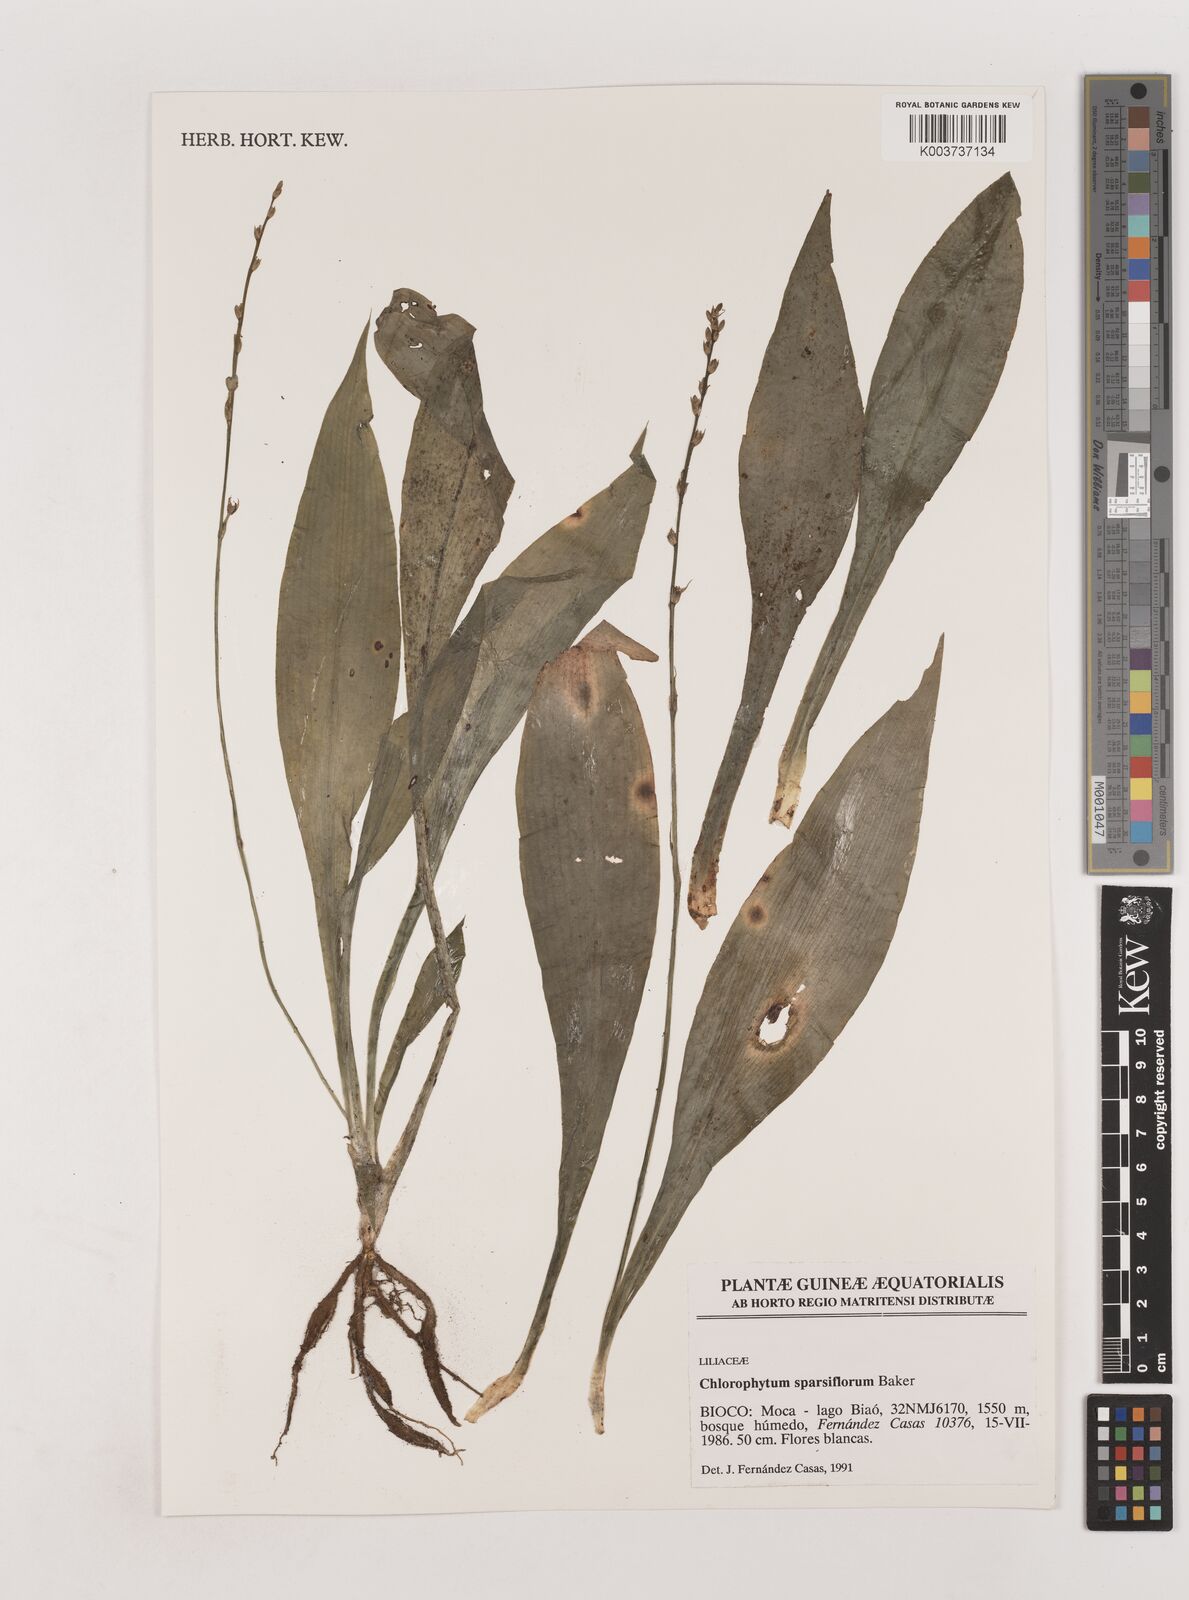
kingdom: Plantae
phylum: Tracheophyta
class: Liliopsida
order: Asparagales
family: Asparagaceae
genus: Chlorophytum
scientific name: Chlorophytum sparsiflorum
